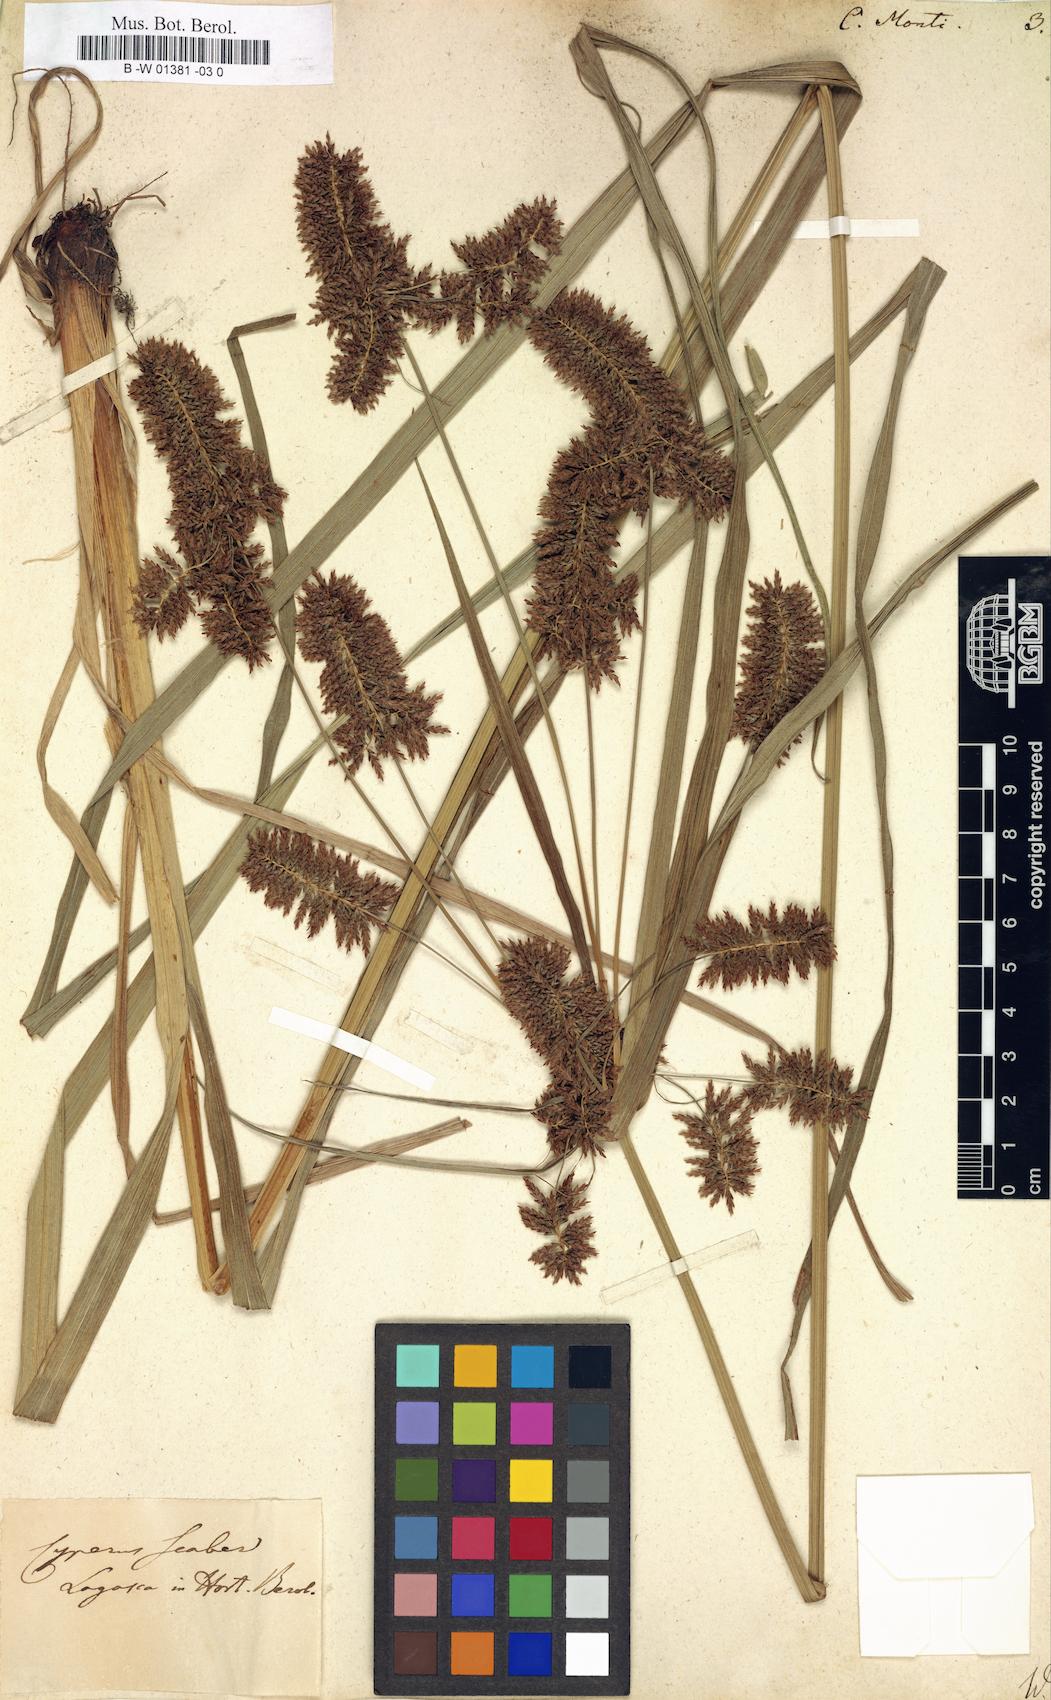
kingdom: Plantae
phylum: Tracheophyta
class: Liliopsida
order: Poales
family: Cyperaceae
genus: Cyperus
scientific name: Cyperus serotinus
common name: Tidalmarsh flatsedge
